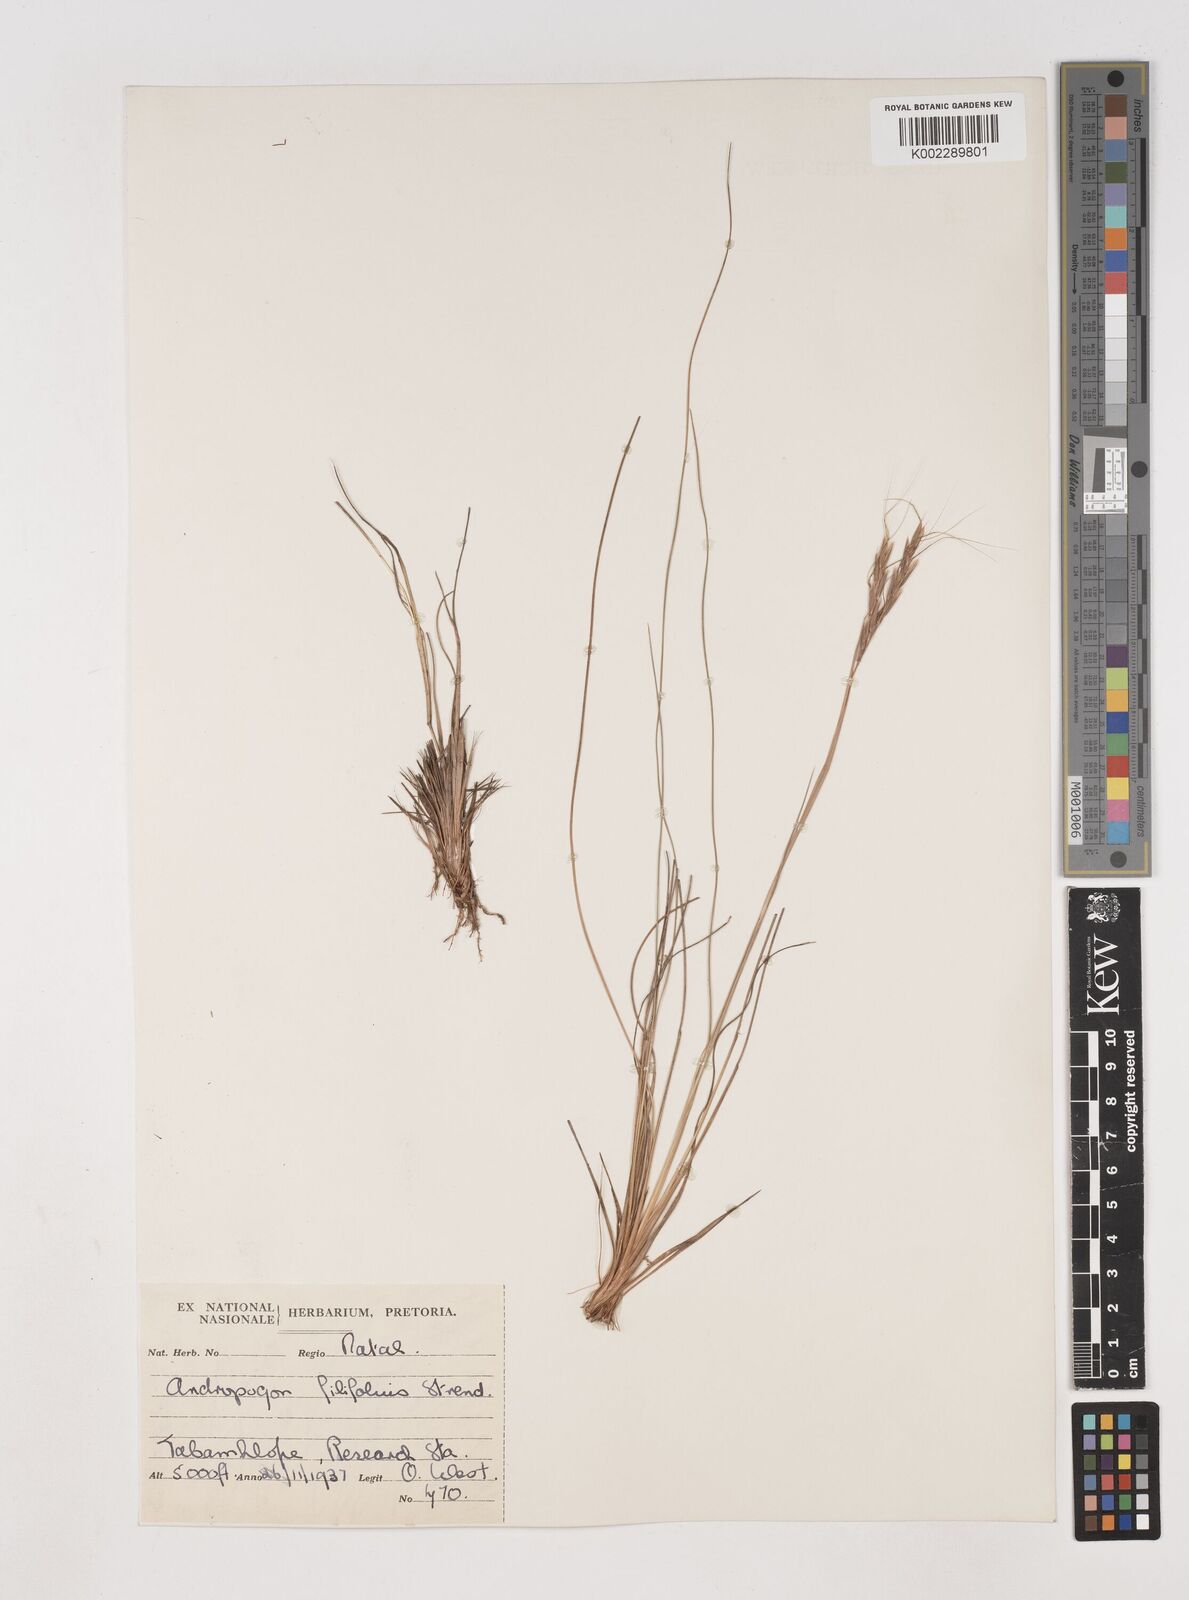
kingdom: Plantae
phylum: Tracheophyta
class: Liliopsida
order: Poales
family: Poaceae
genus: Diheteropogon
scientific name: Diheteropogon filifolius
